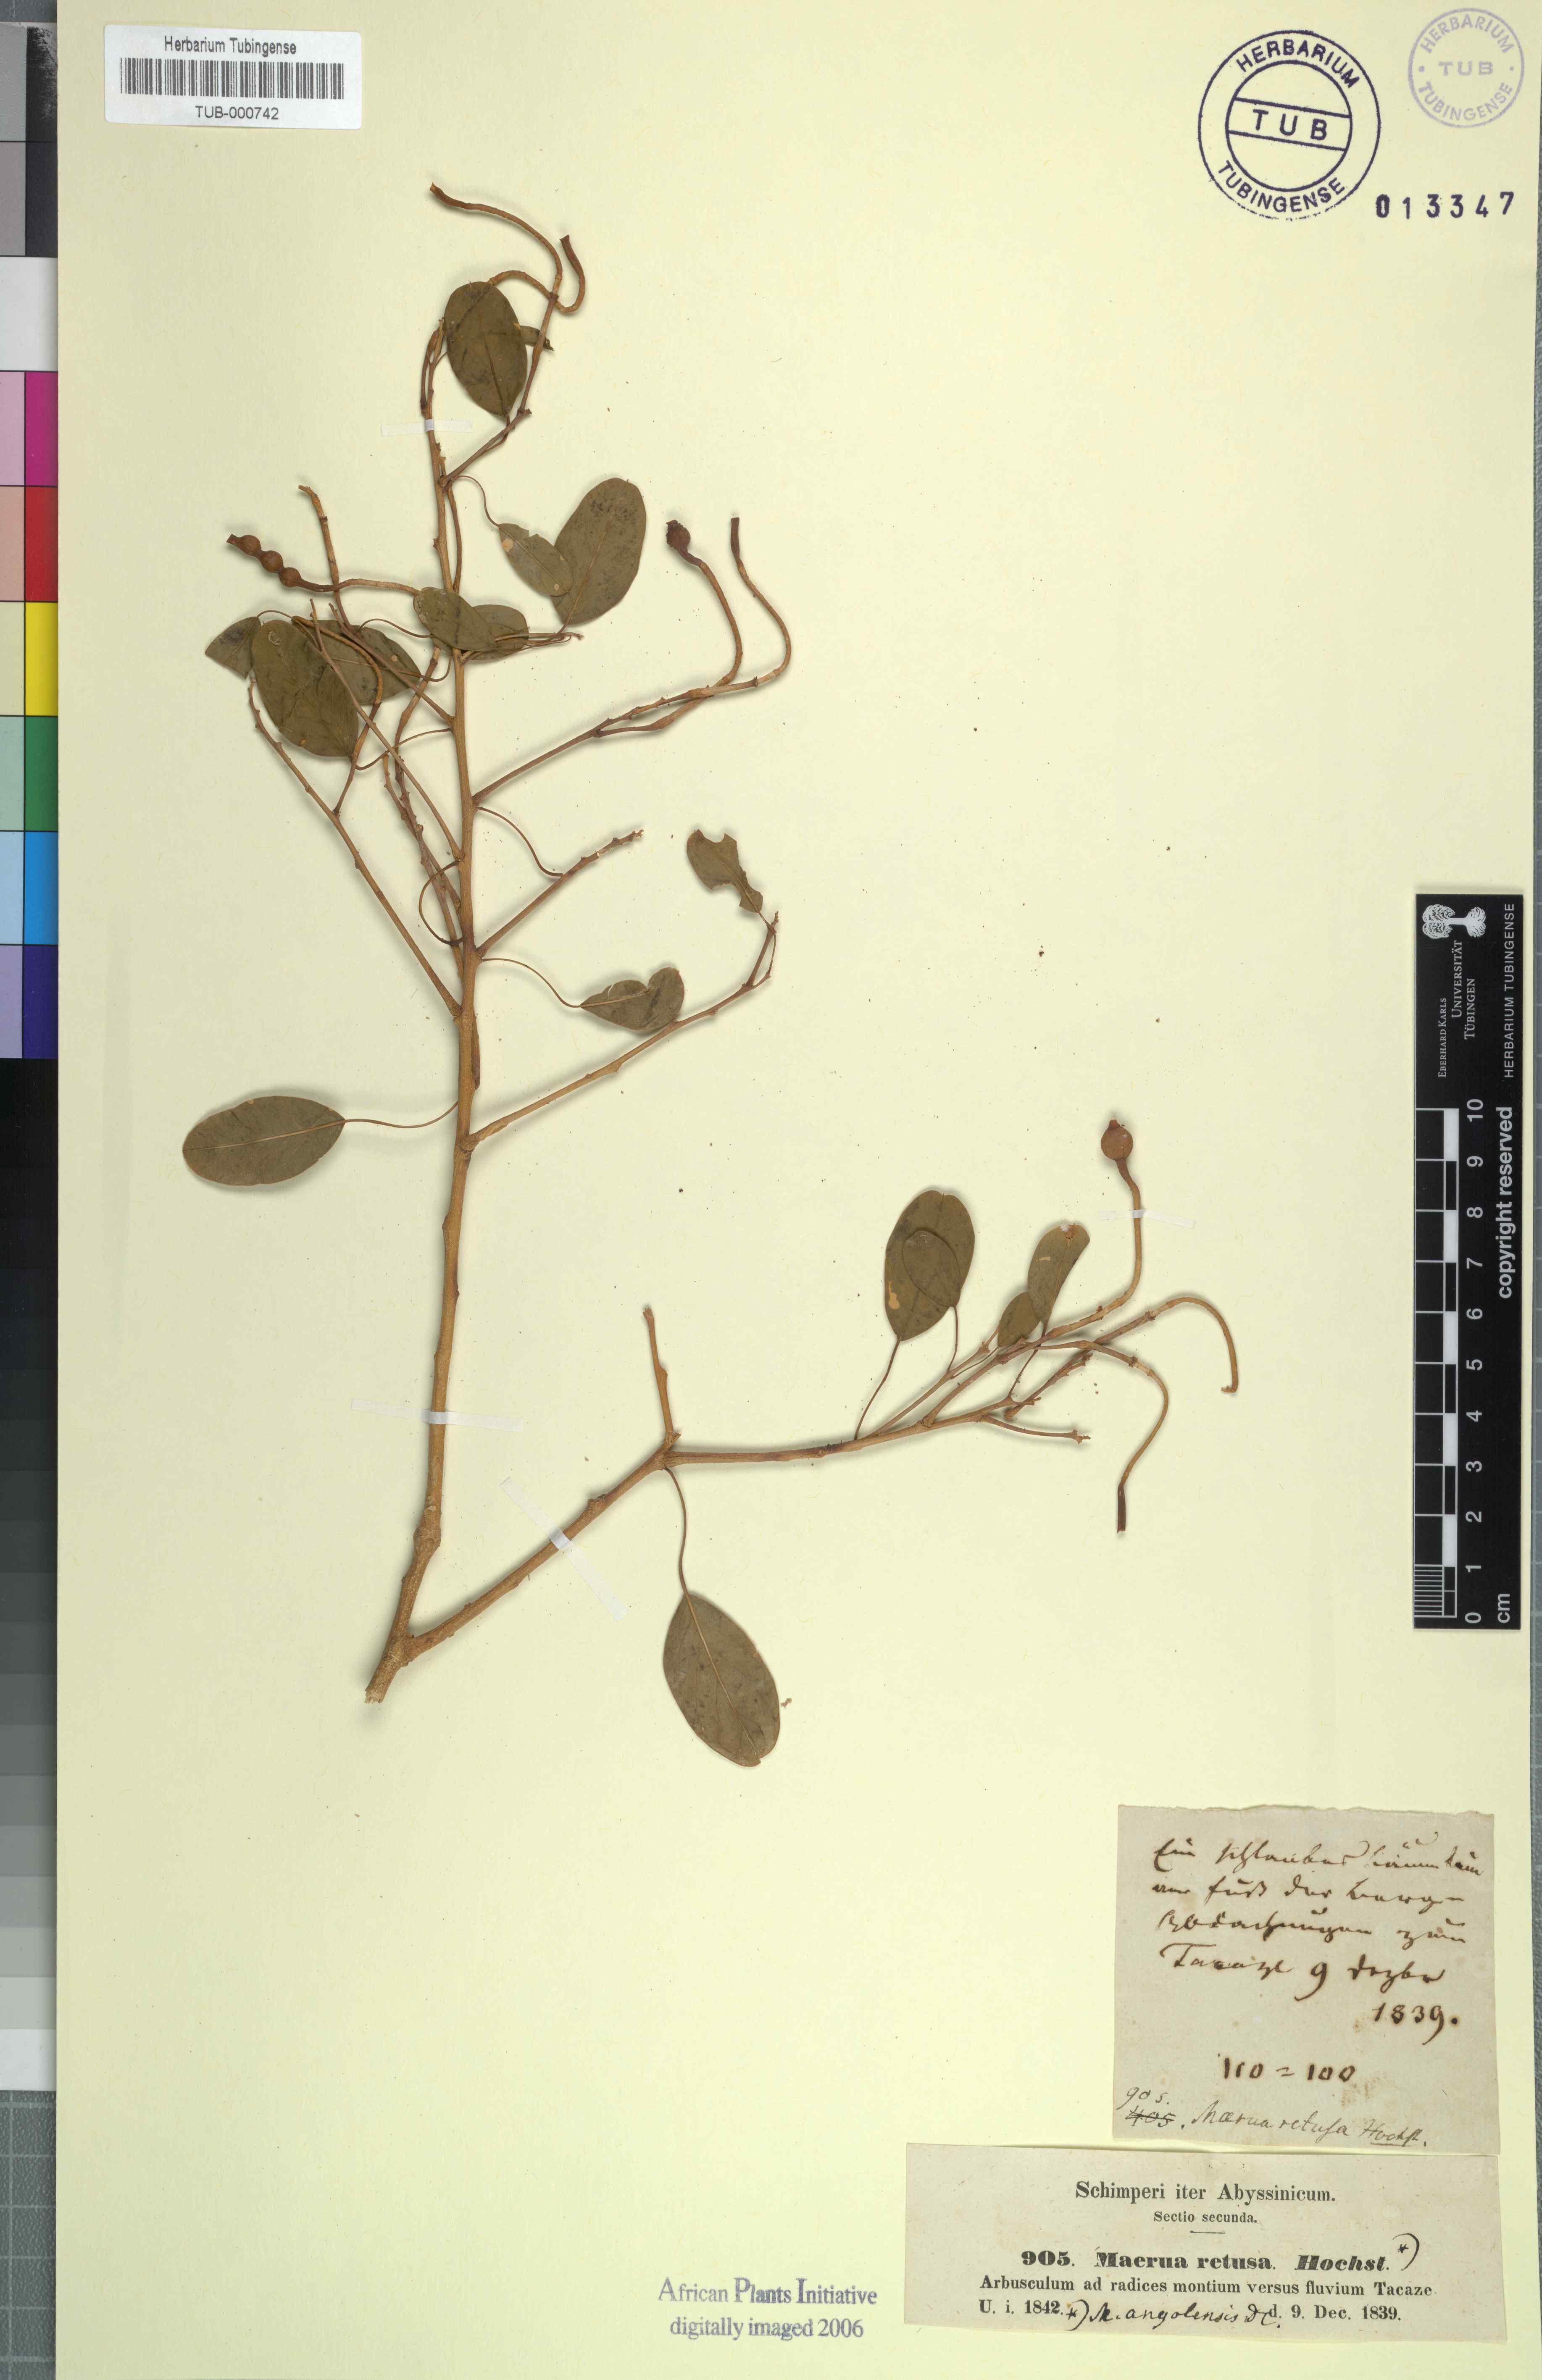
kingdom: Plantae
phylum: Tracheophyta
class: Magnoliopsida
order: Brassicales
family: Capparaceae
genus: Maerua
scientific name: Maerua angolensis
